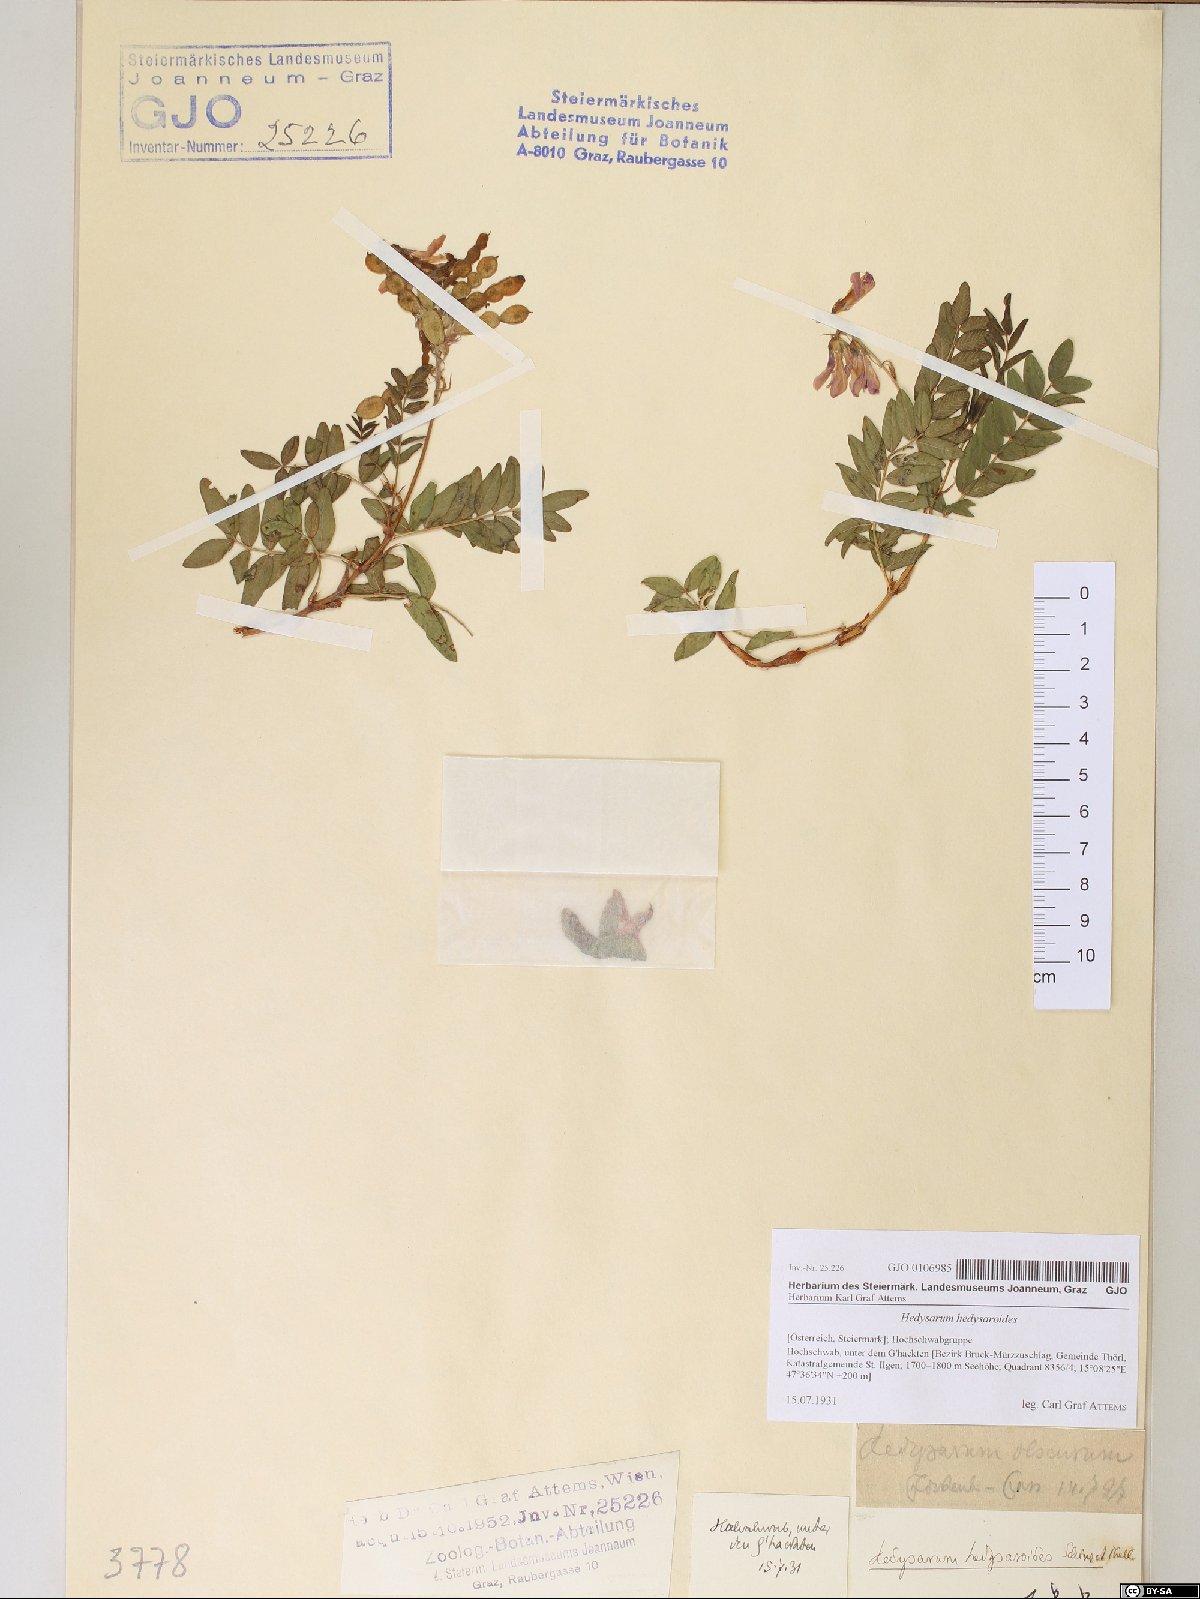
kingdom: Plantae
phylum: Tracheophyta
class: Magnoliopsida
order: Fabales
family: Fabaceae
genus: Hedysarum
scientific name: Hedysarum hedysaroides
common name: Alpine french-honeysuckle
